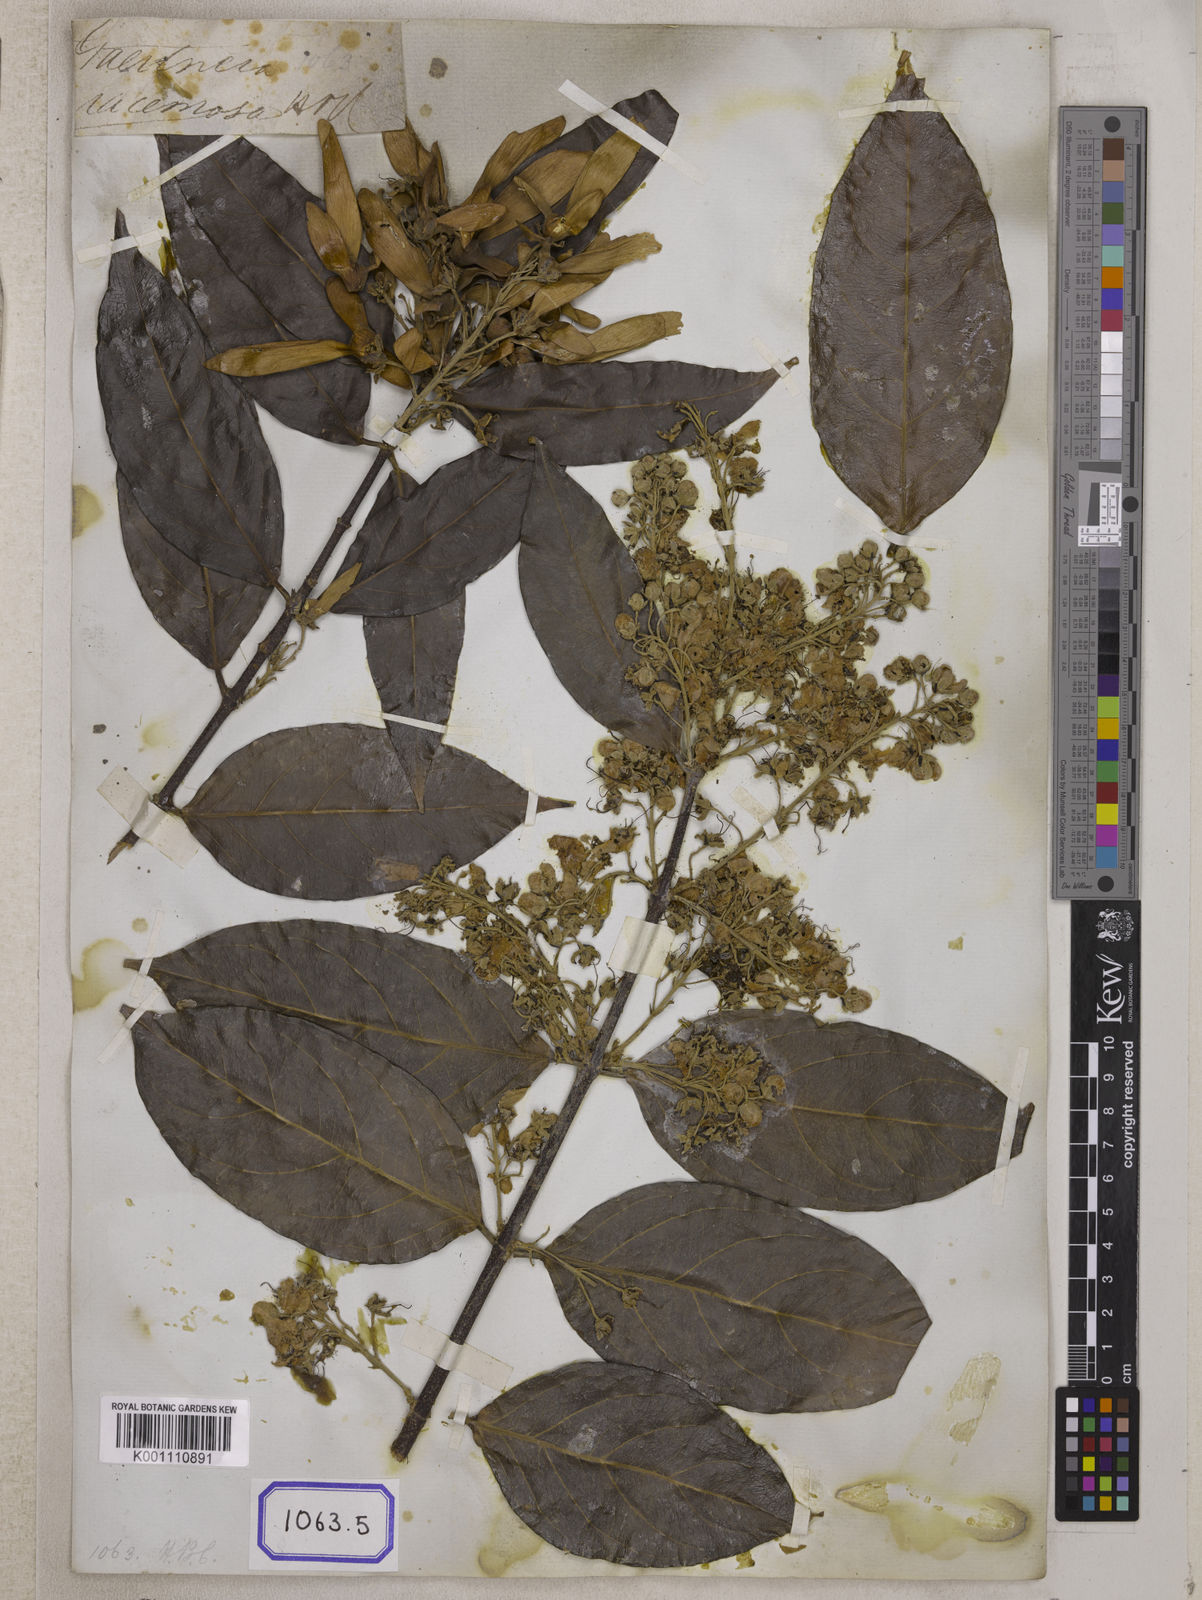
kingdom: Plantae
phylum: Tracheophyta
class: Magnoliopsida
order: Malpighiales
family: Malpighiaceae
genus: Hiptage
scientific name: Hiptage benghalensis
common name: Hiptage
